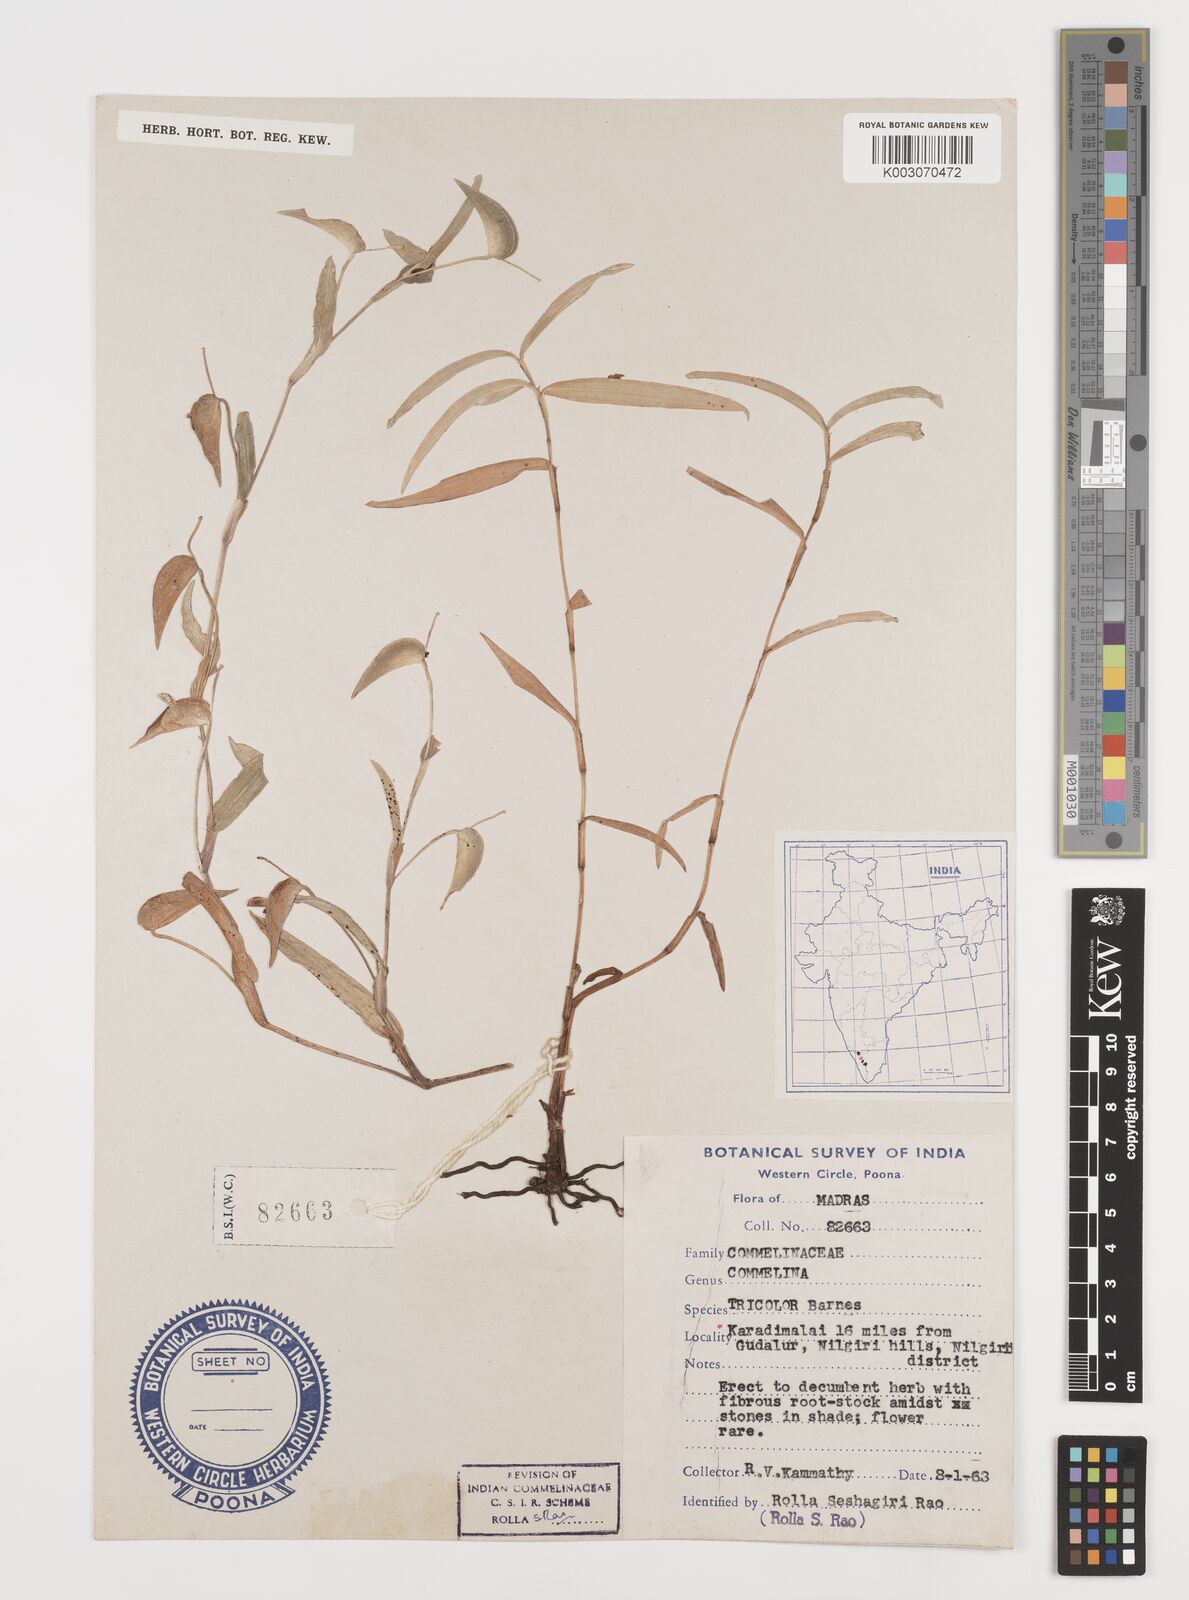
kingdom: Plantae
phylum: Tracheophyta
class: Liliopsida
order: Commelinales
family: Commelinaceae
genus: Commelina
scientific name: Commelina tricolor
